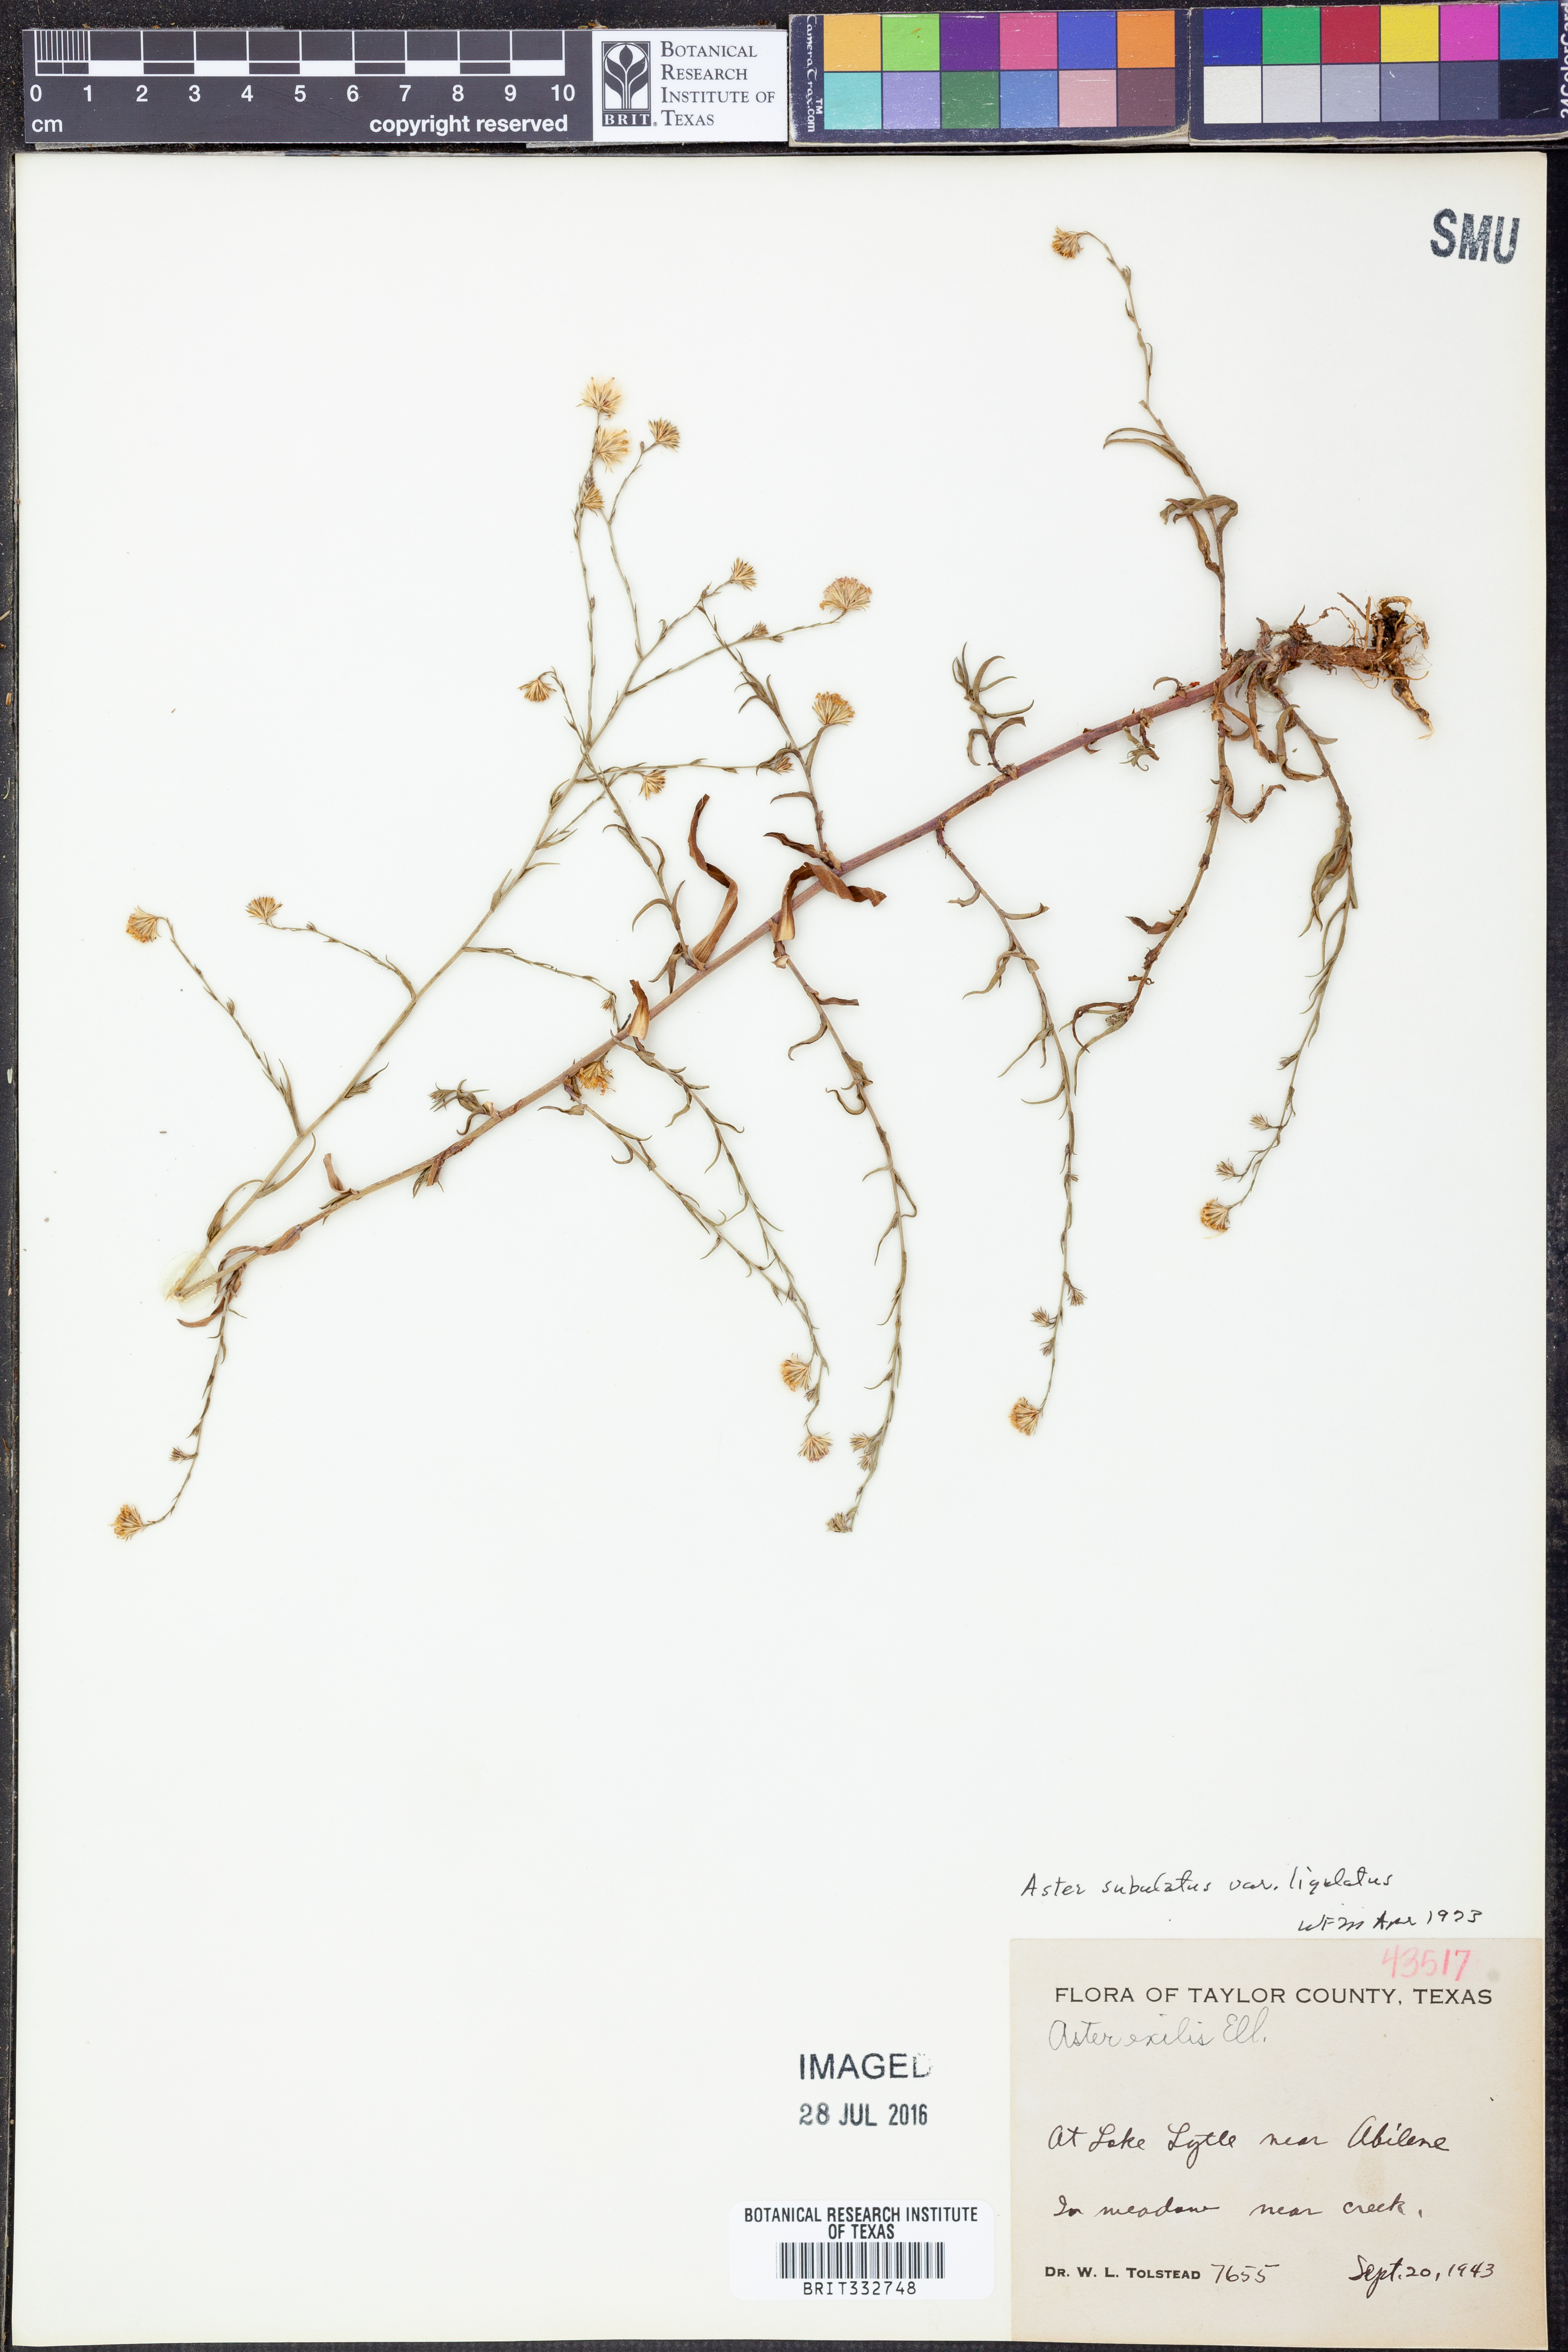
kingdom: Plantae
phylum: Tracheophyta
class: Magnoliopsida
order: Asterales
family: Asteraceae
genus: Symphyotrichum
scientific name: Symphyotrichum divaricatum
